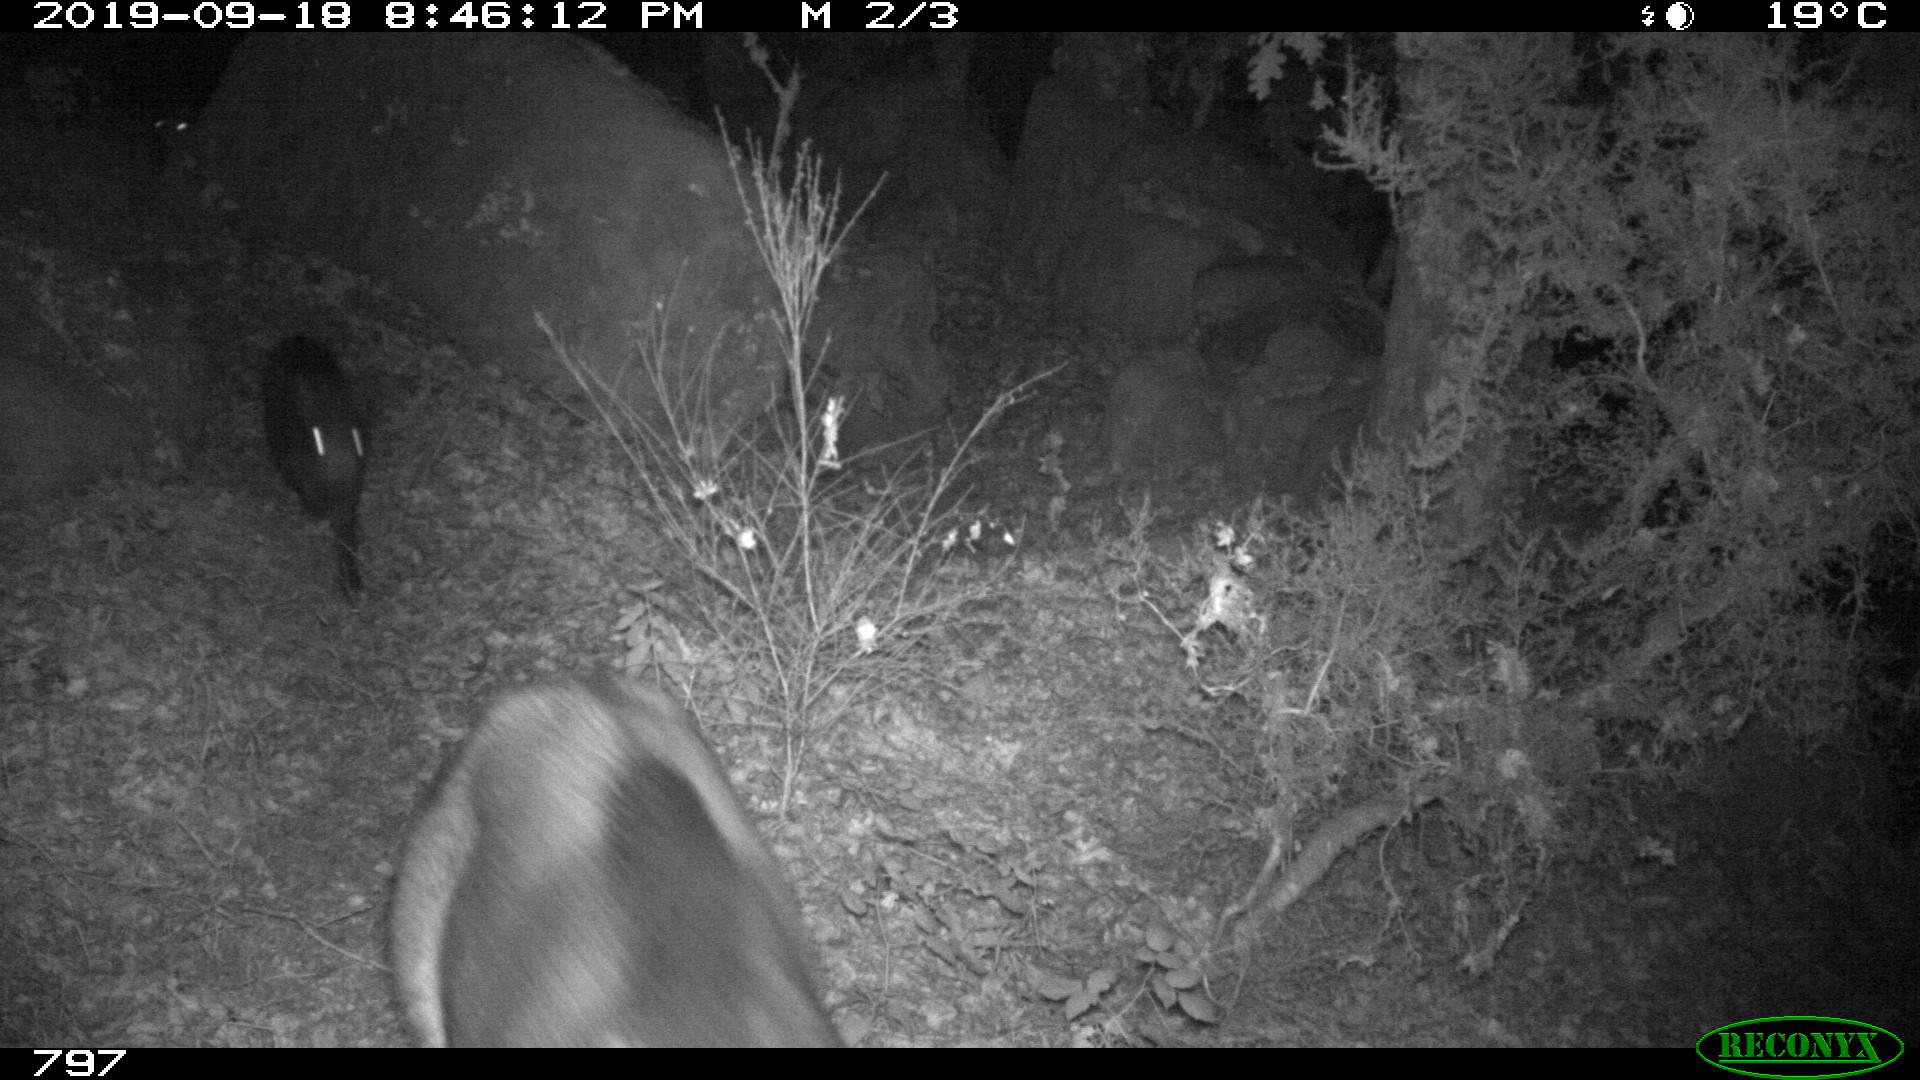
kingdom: Animalia
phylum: Chordata
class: Mammalia
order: Artiodactyla
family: Suidae
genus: Sus
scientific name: Sus scrofa
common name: Wild boar
